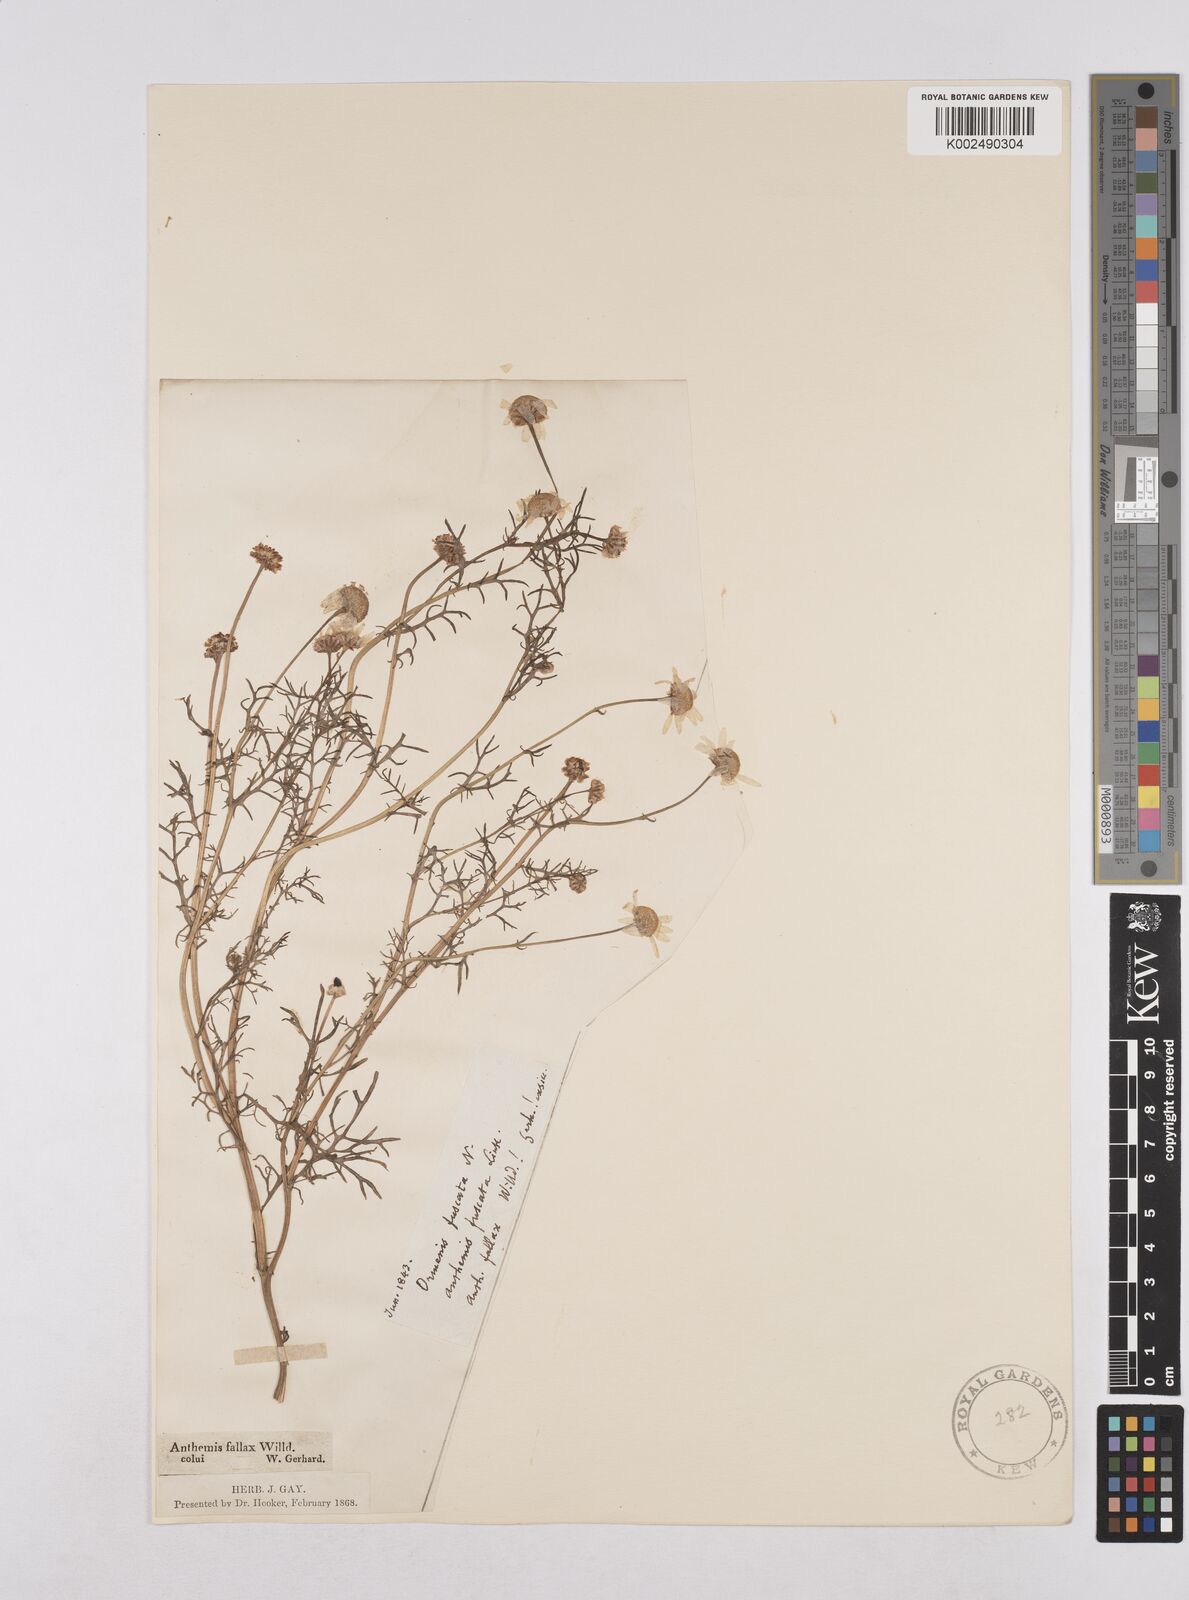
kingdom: Plantae
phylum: Tracheophyta
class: Magnoliopsida
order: Asterales
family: Asteraceae
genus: Chamaemelum
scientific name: Chamaemelum
